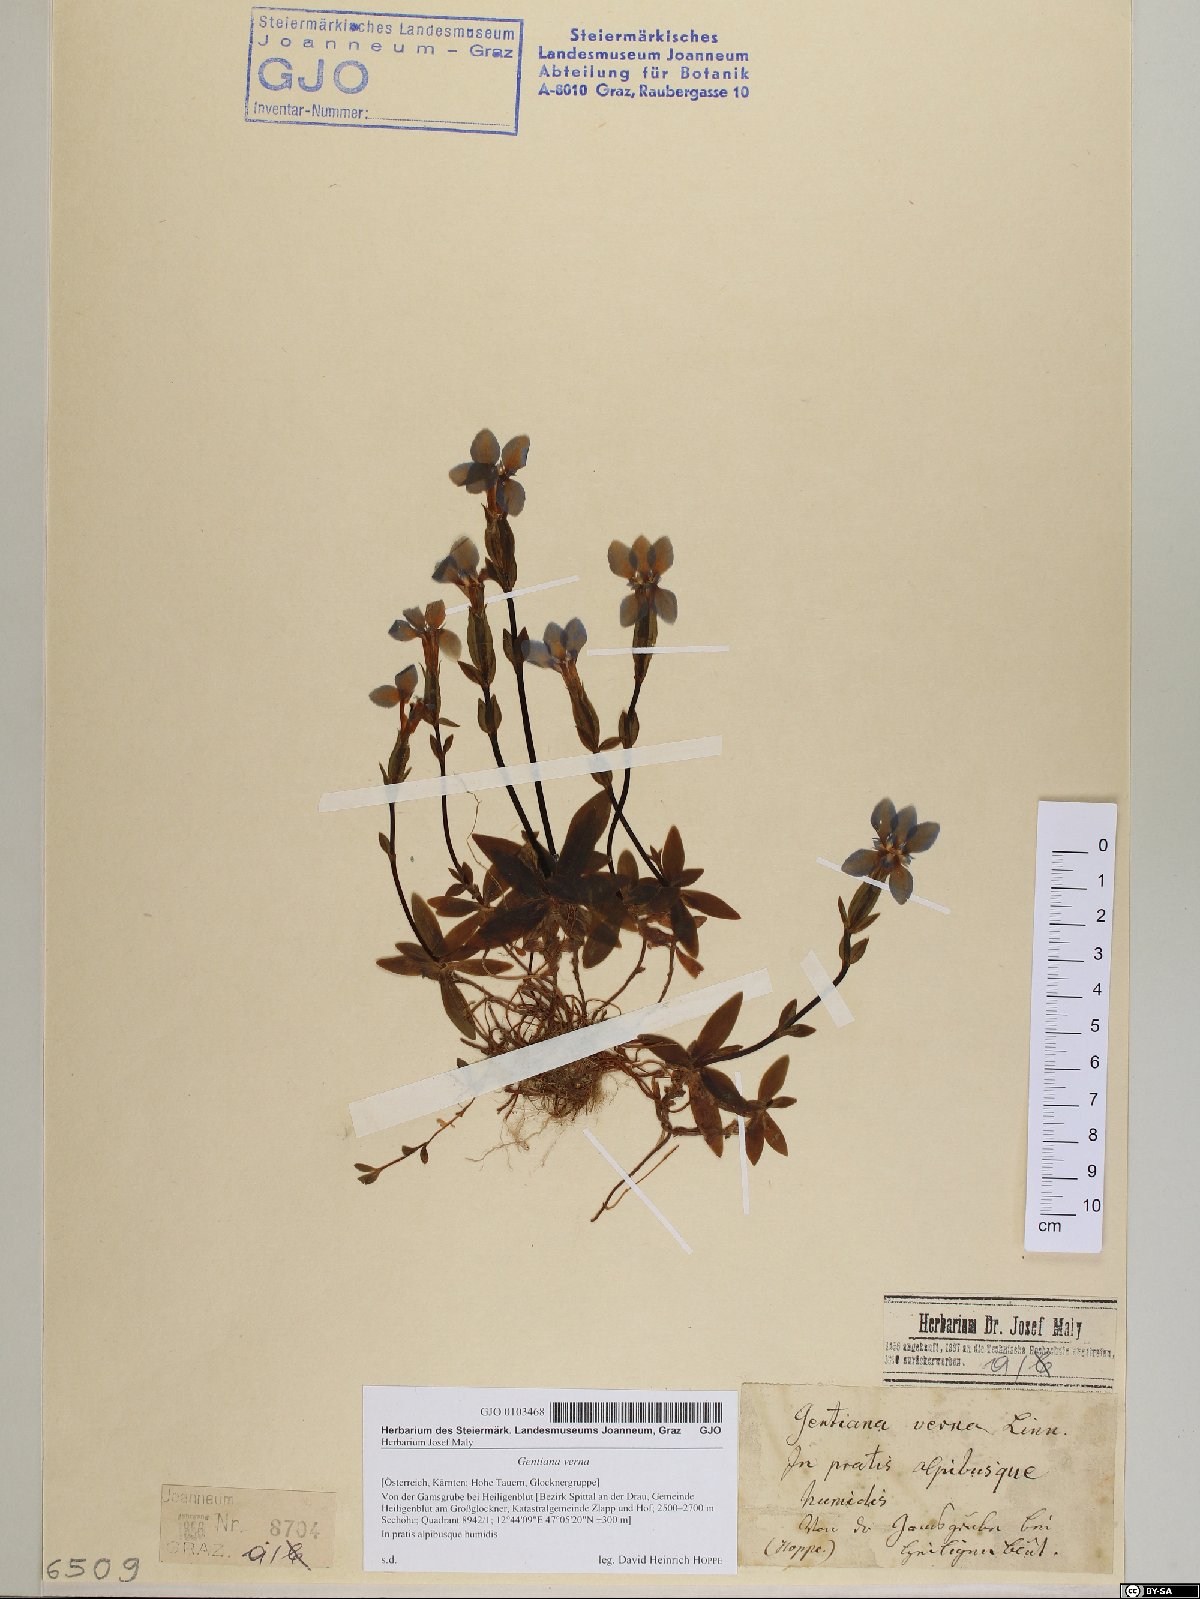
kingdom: Plantae
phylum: Tracheophyta
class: Magnoliopsida
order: Gentianales
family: Gentianaceae
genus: Gentiana
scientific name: Gentiana verna
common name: Spring gentian
